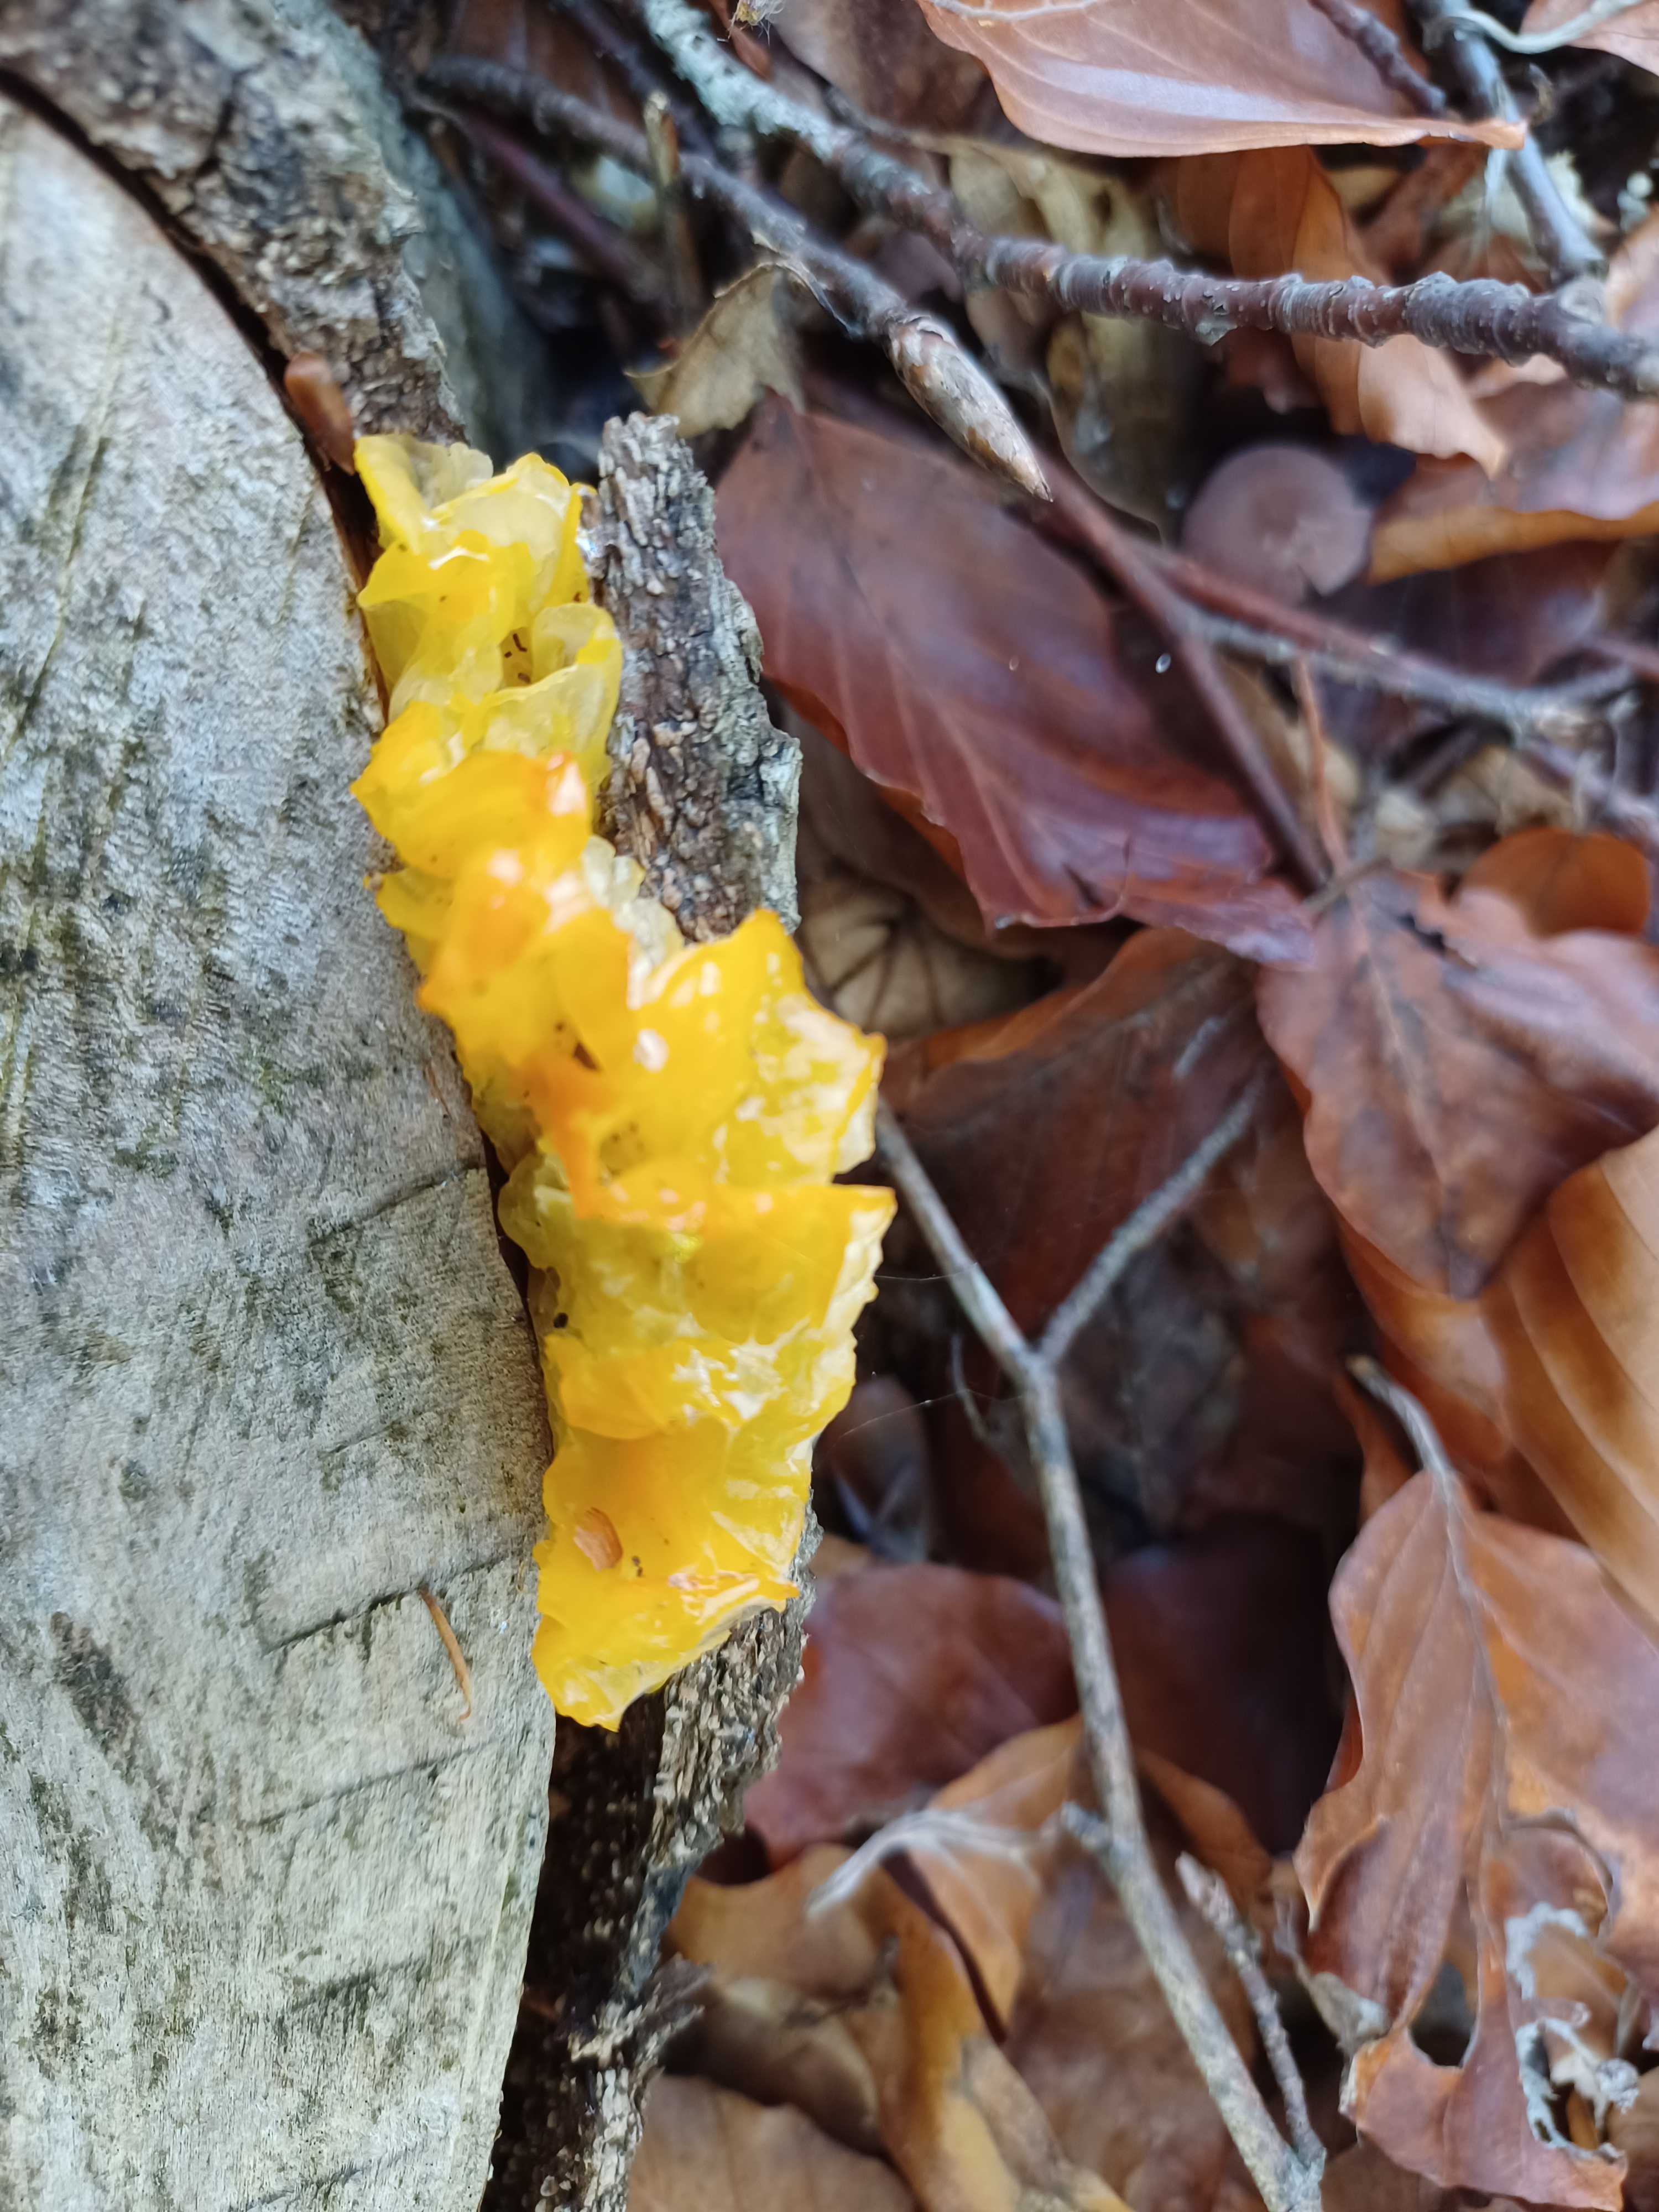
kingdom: Fungi
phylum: Basidiomycota
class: Tremellomycetes
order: Tremellales
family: Tremellaceae
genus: Tremella
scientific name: Tremella mesenterica
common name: gul bævresvamp
